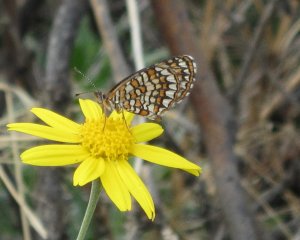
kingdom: Animalia
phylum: Arthropoda
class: Insecta
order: Lepidoptera
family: Nymphalidae
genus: Texola
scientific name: Texola elada
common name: Elada Checkerspot
